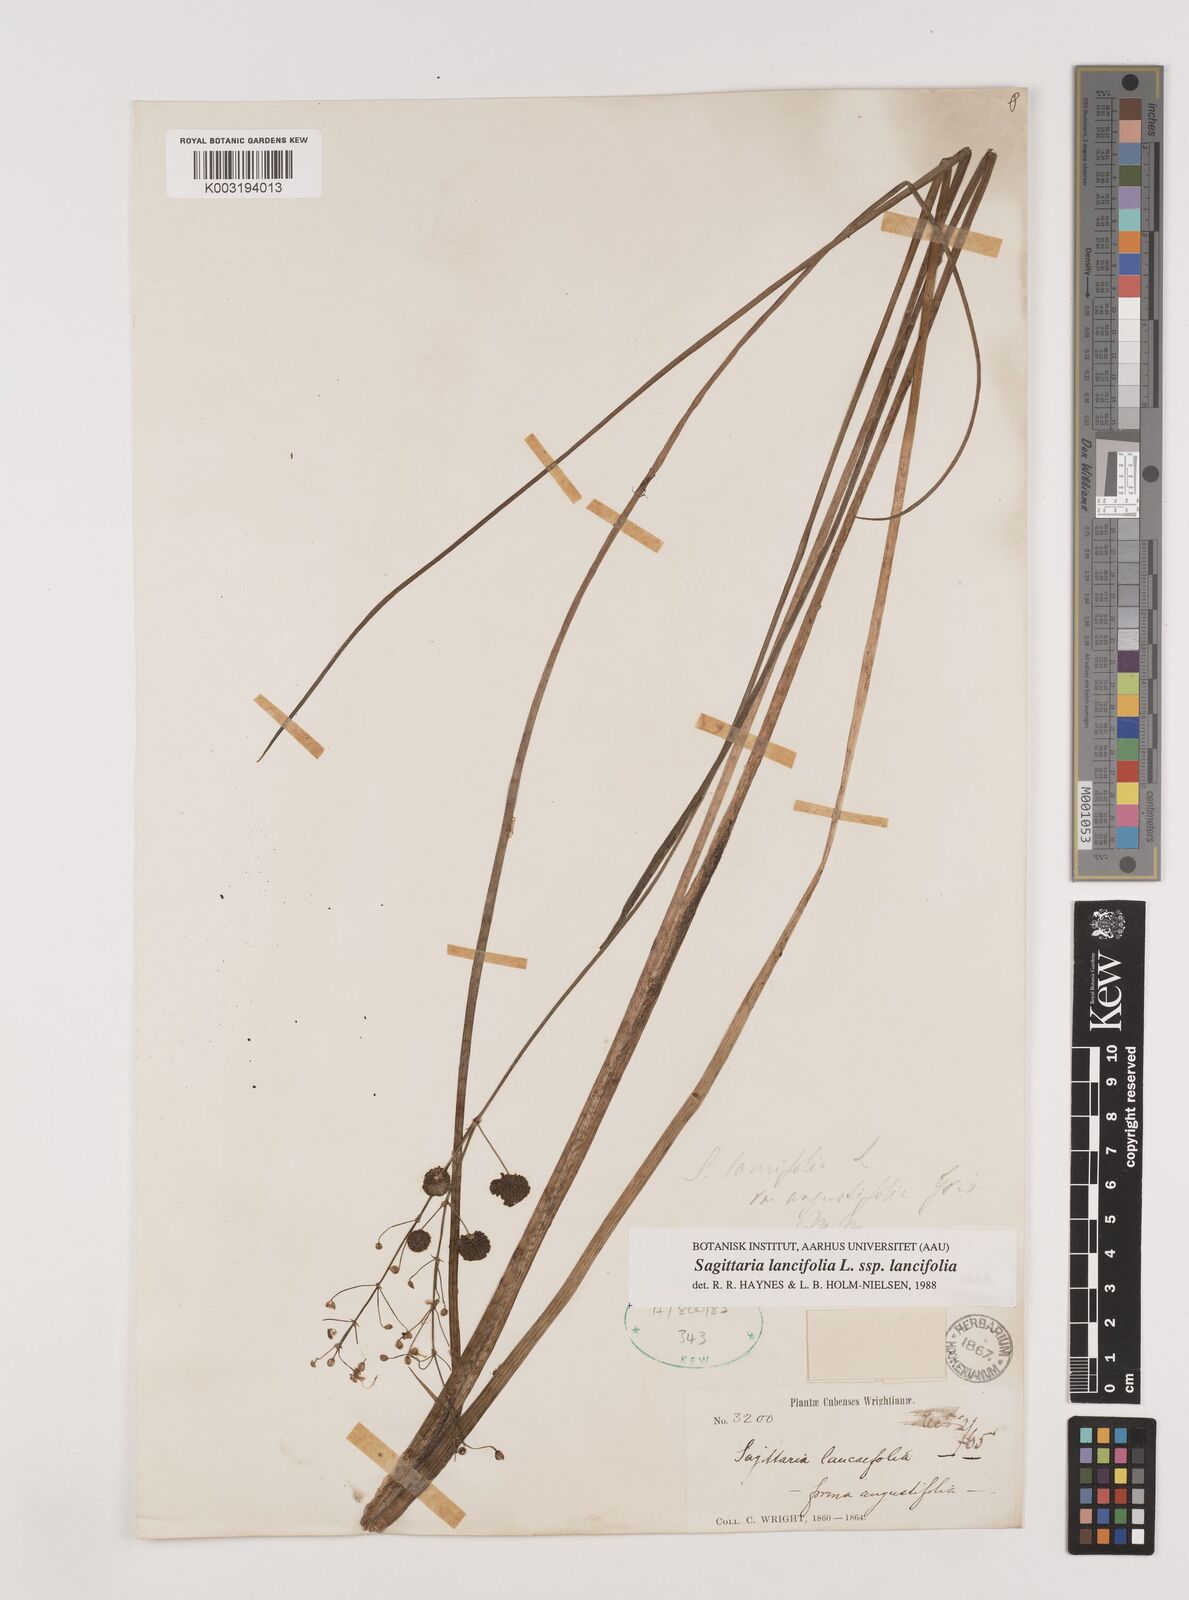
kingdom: Plantae
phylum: Tracheophyta
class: Liliopsida
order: Alismatales
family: Alismataceae
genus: Sagittaria
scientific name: Sagittaria lancifolia
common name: Lance-leaf arrowhead
